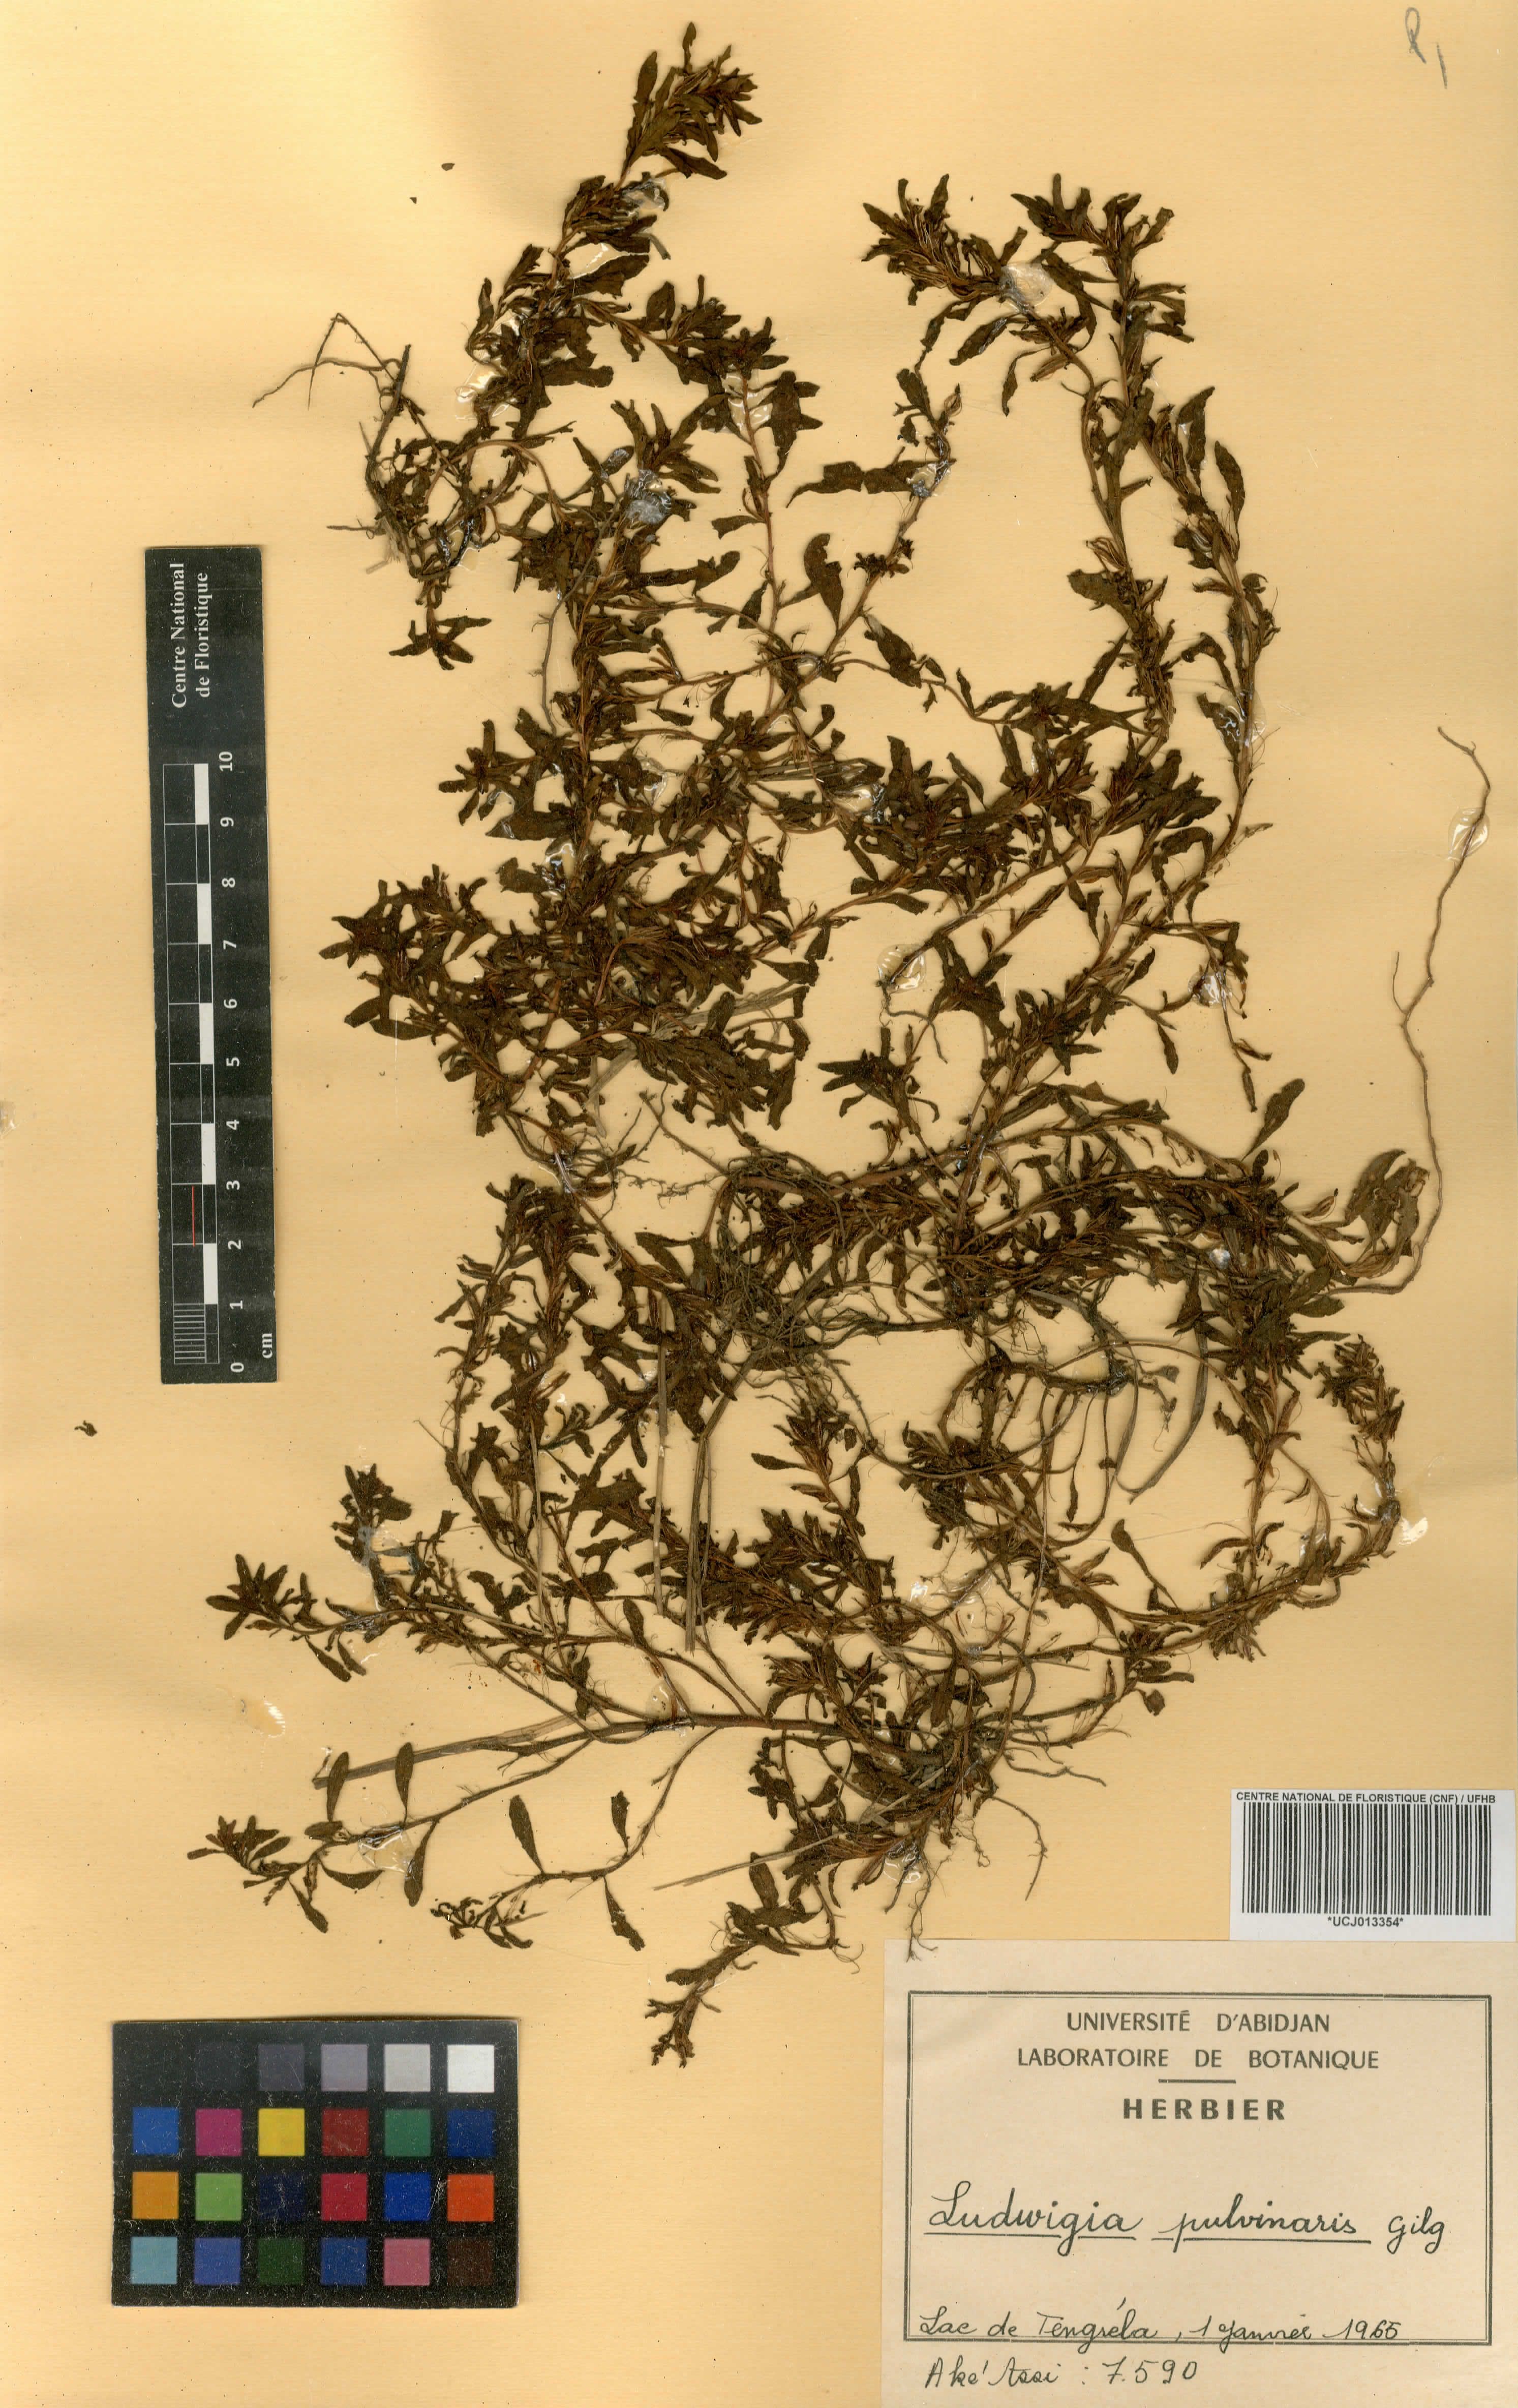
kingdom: Plantae
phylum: Tracheophyta
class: Magnoliopsida
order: Myrtales
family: Onagraceae
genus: Ludwigia
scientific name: Ludwigia perennis
